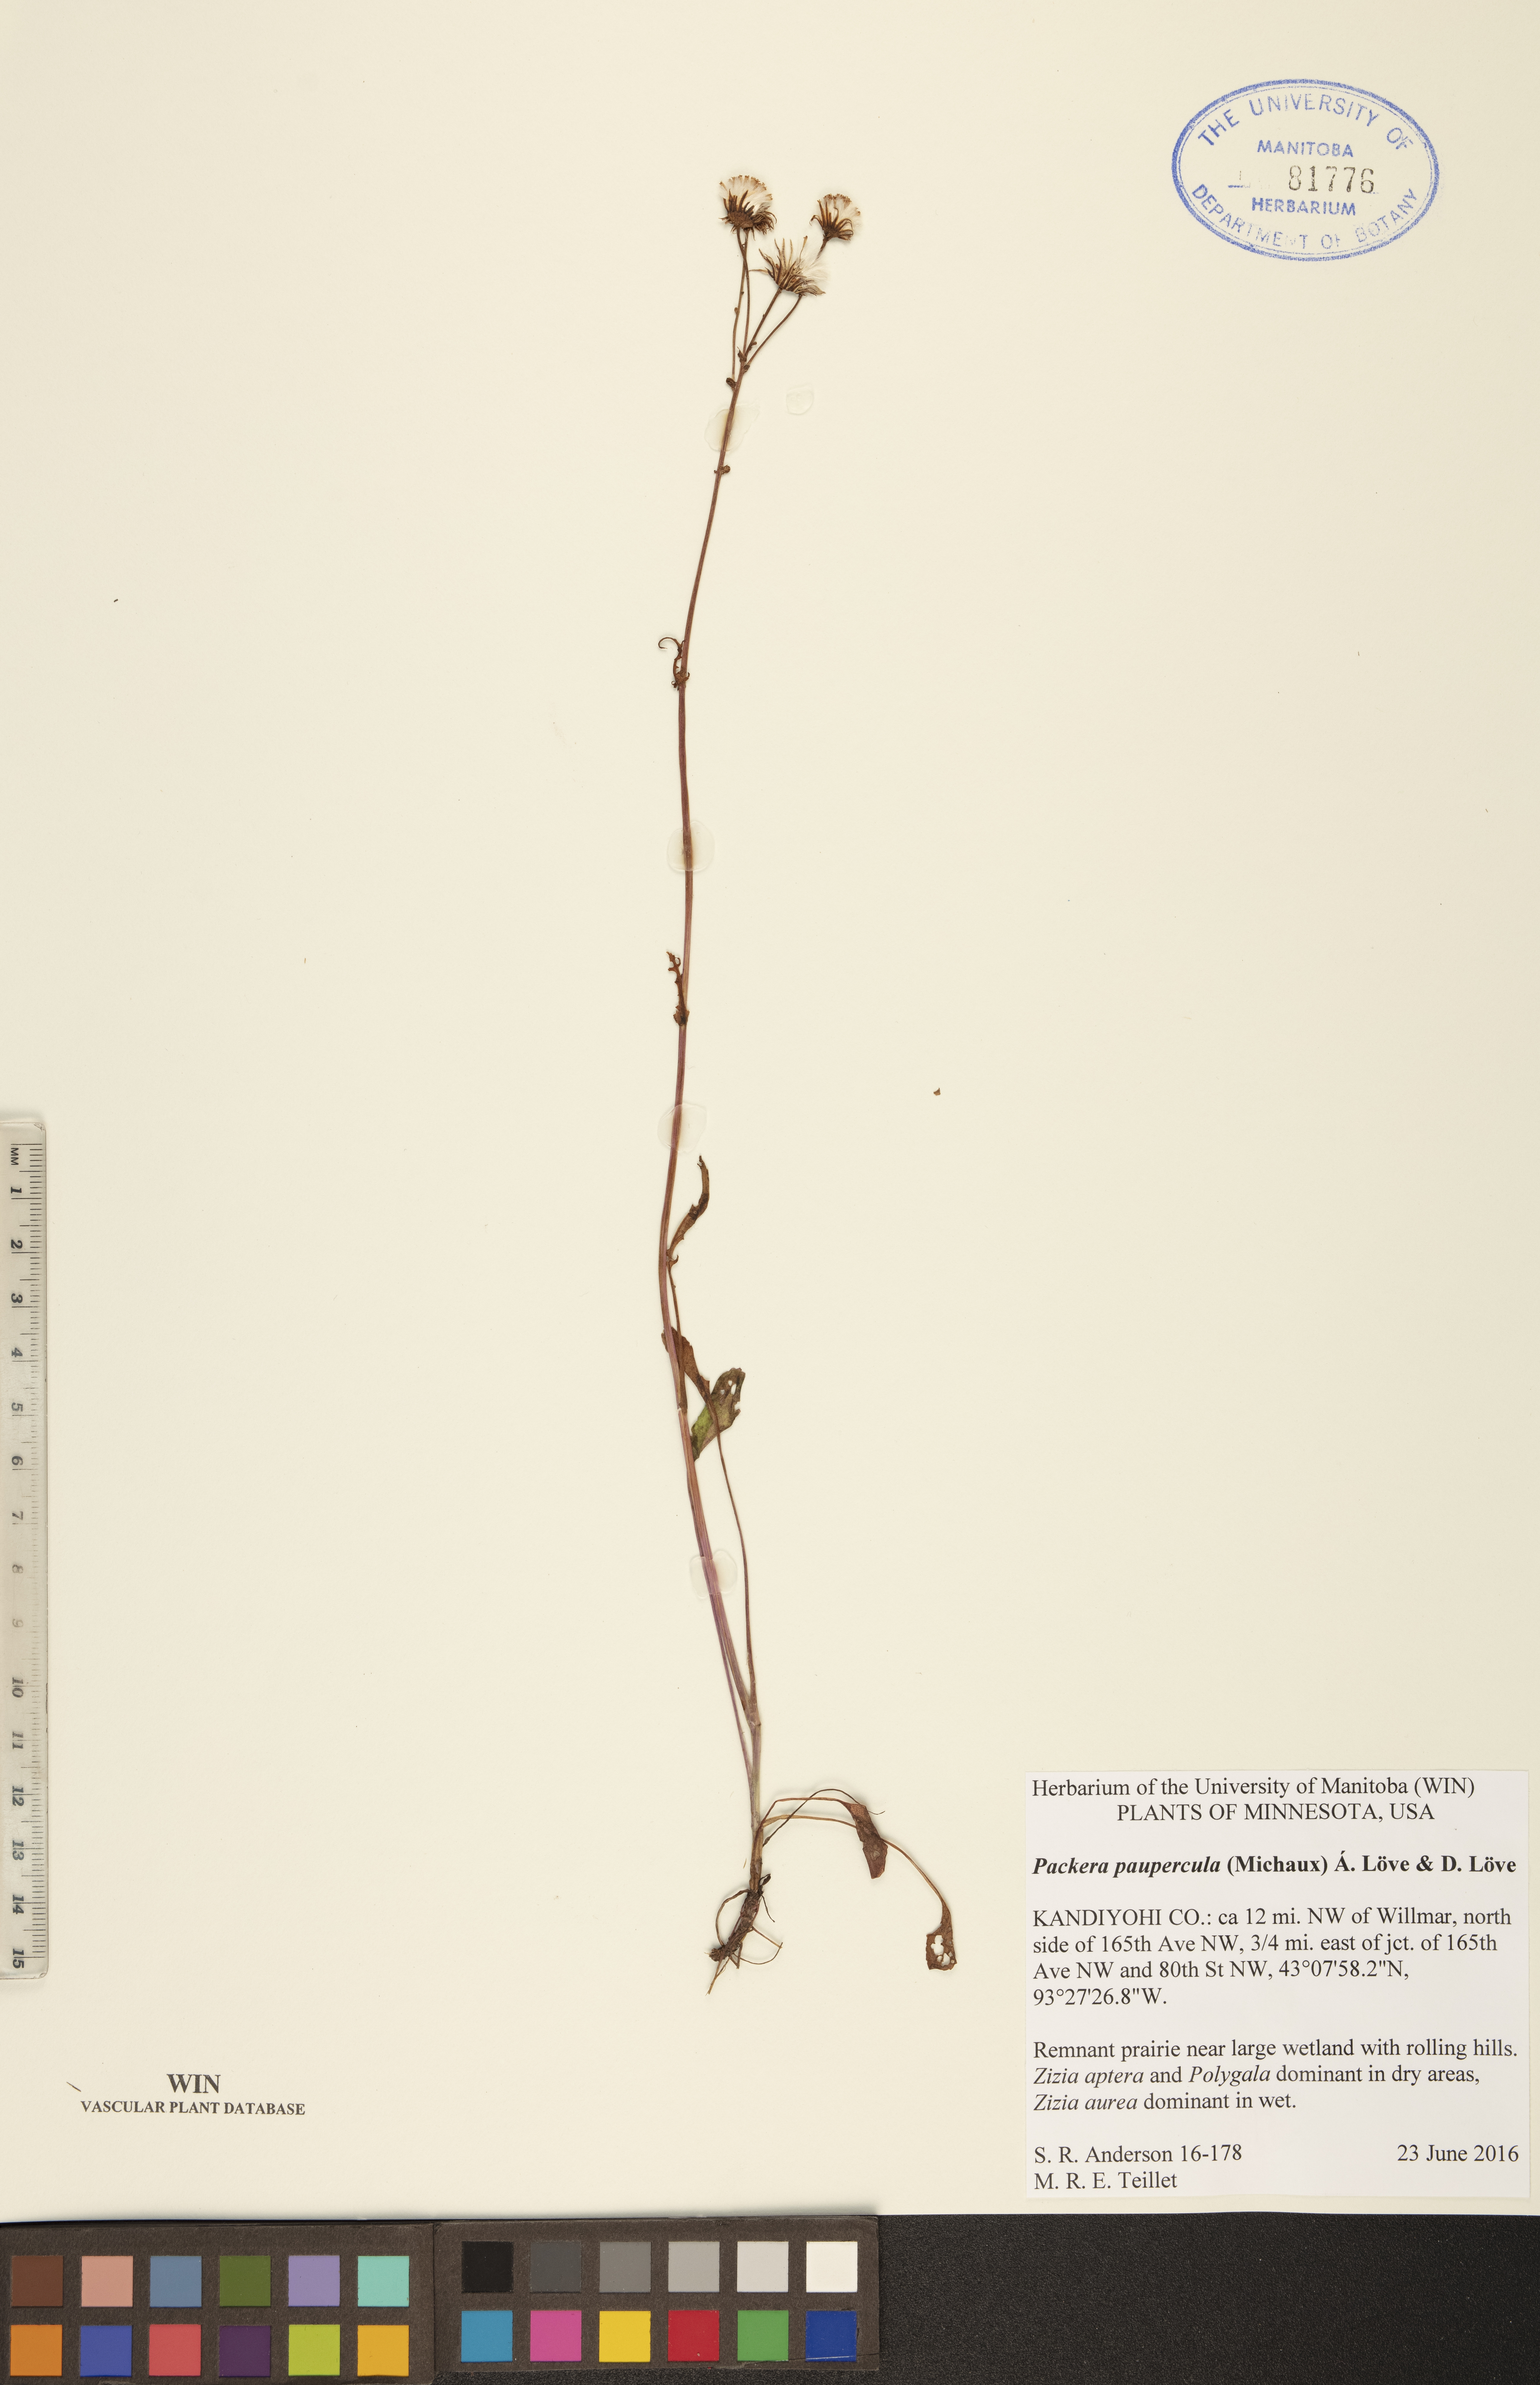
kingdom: Plantae
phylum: Tracheophyta
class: Magnoliopsida
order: Asterales
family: Asteraceae
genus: Packera
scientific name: Packera paupercula
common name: Balsam groundsel
